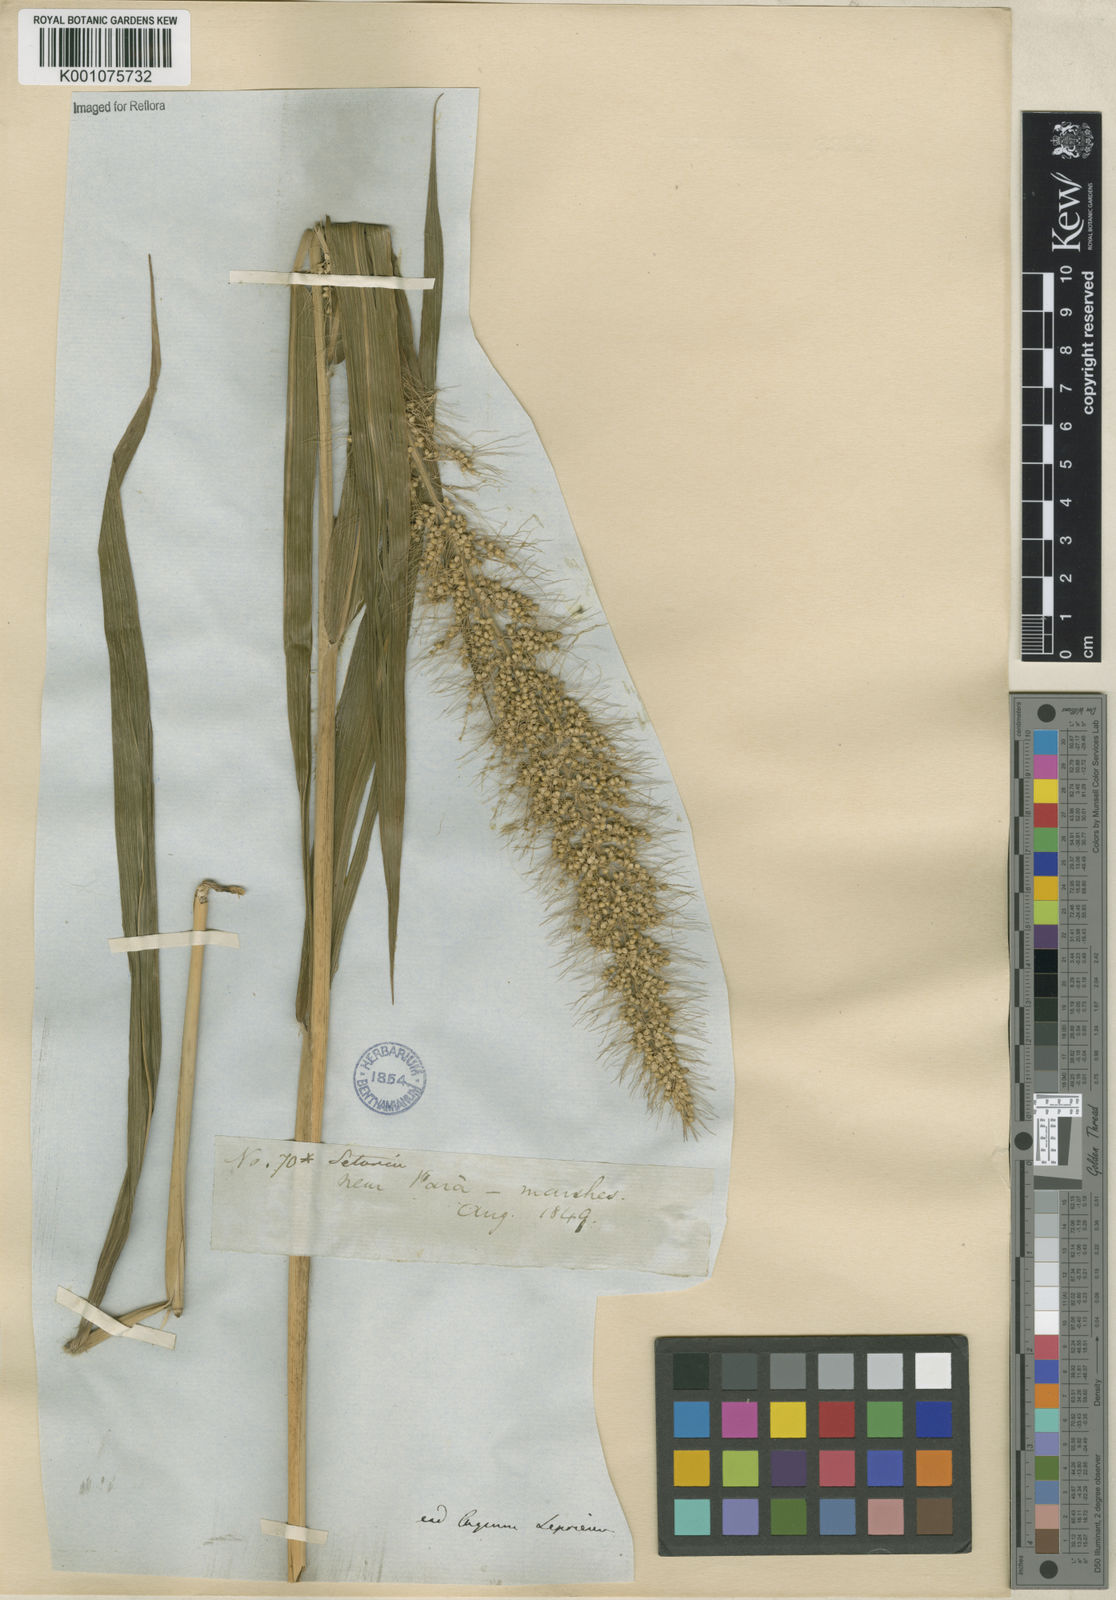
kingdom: Plantae
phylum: Tracheophyta
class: Liliopsida
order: Poales
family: Poaceae
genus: Setaria
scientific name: Setaria tenax
